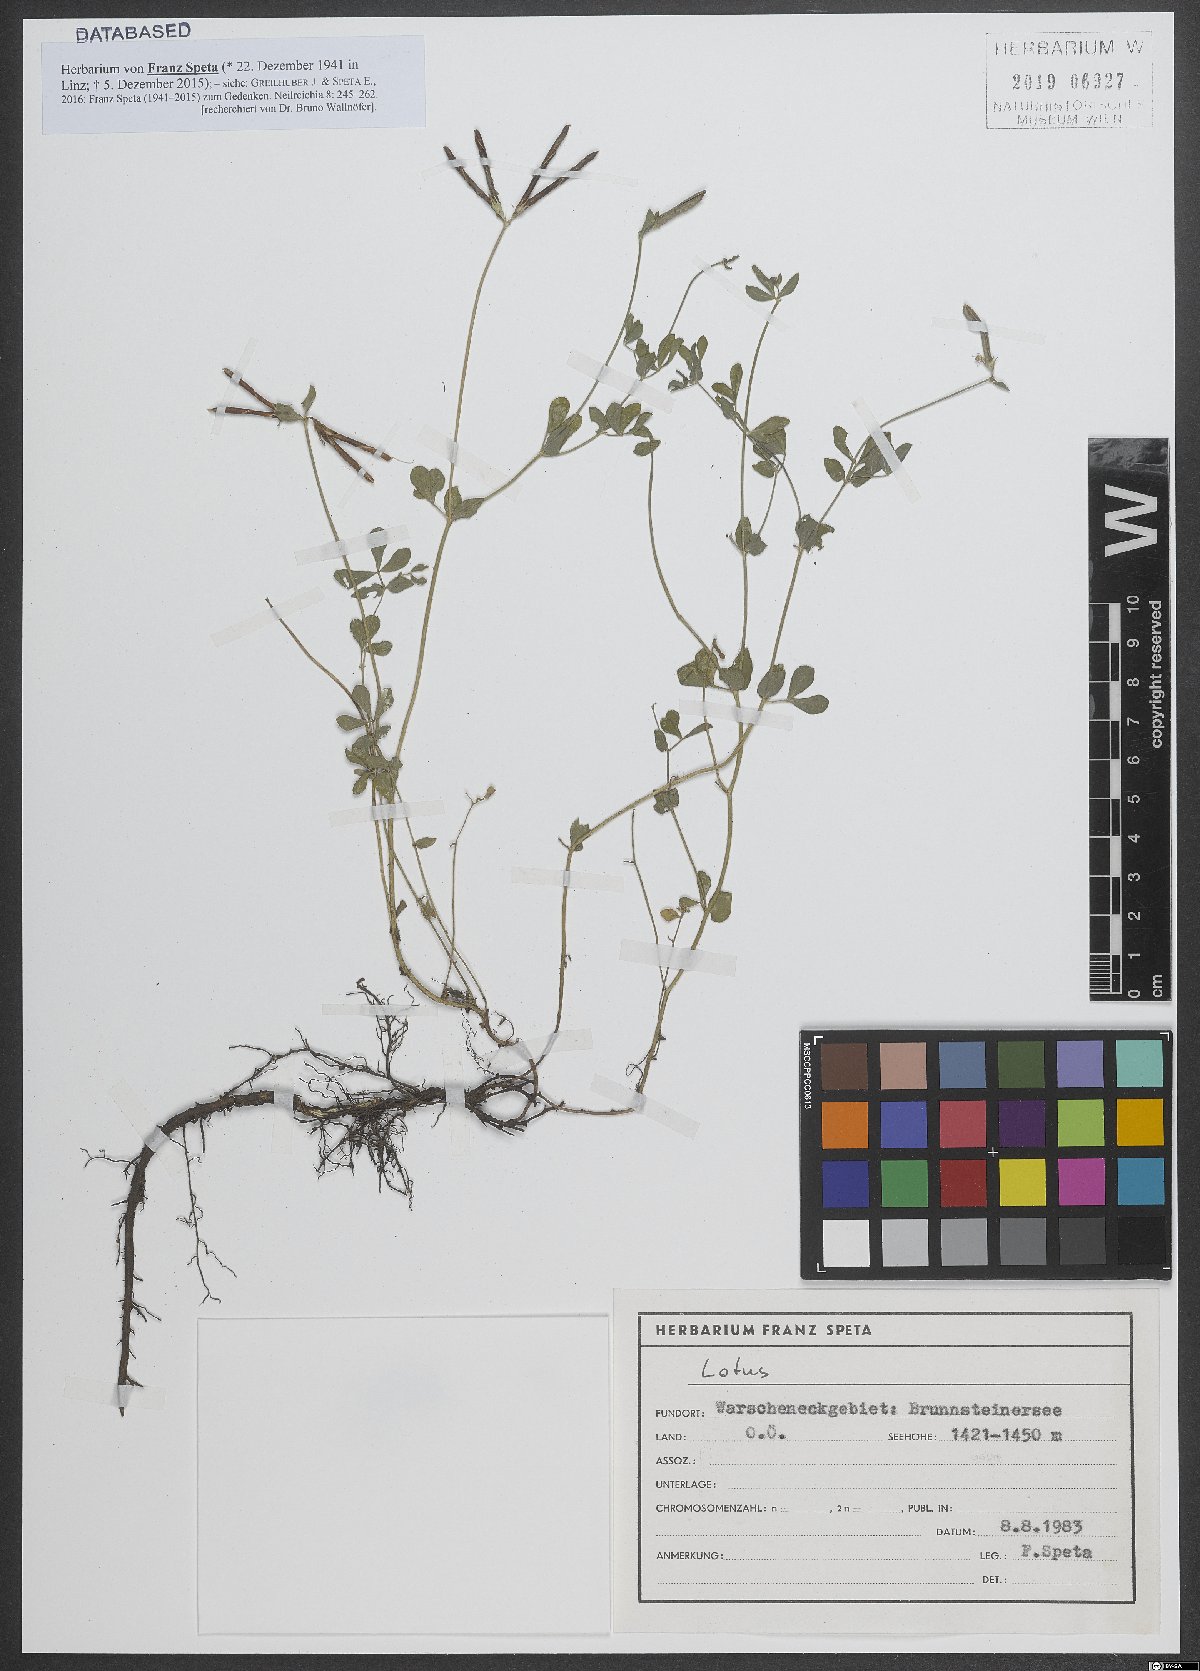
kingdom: Plantae
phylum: Tracheophyta
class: Magnoliopsida
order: Fabales
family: Fabaceae
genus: Lotus
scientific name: Lotus
